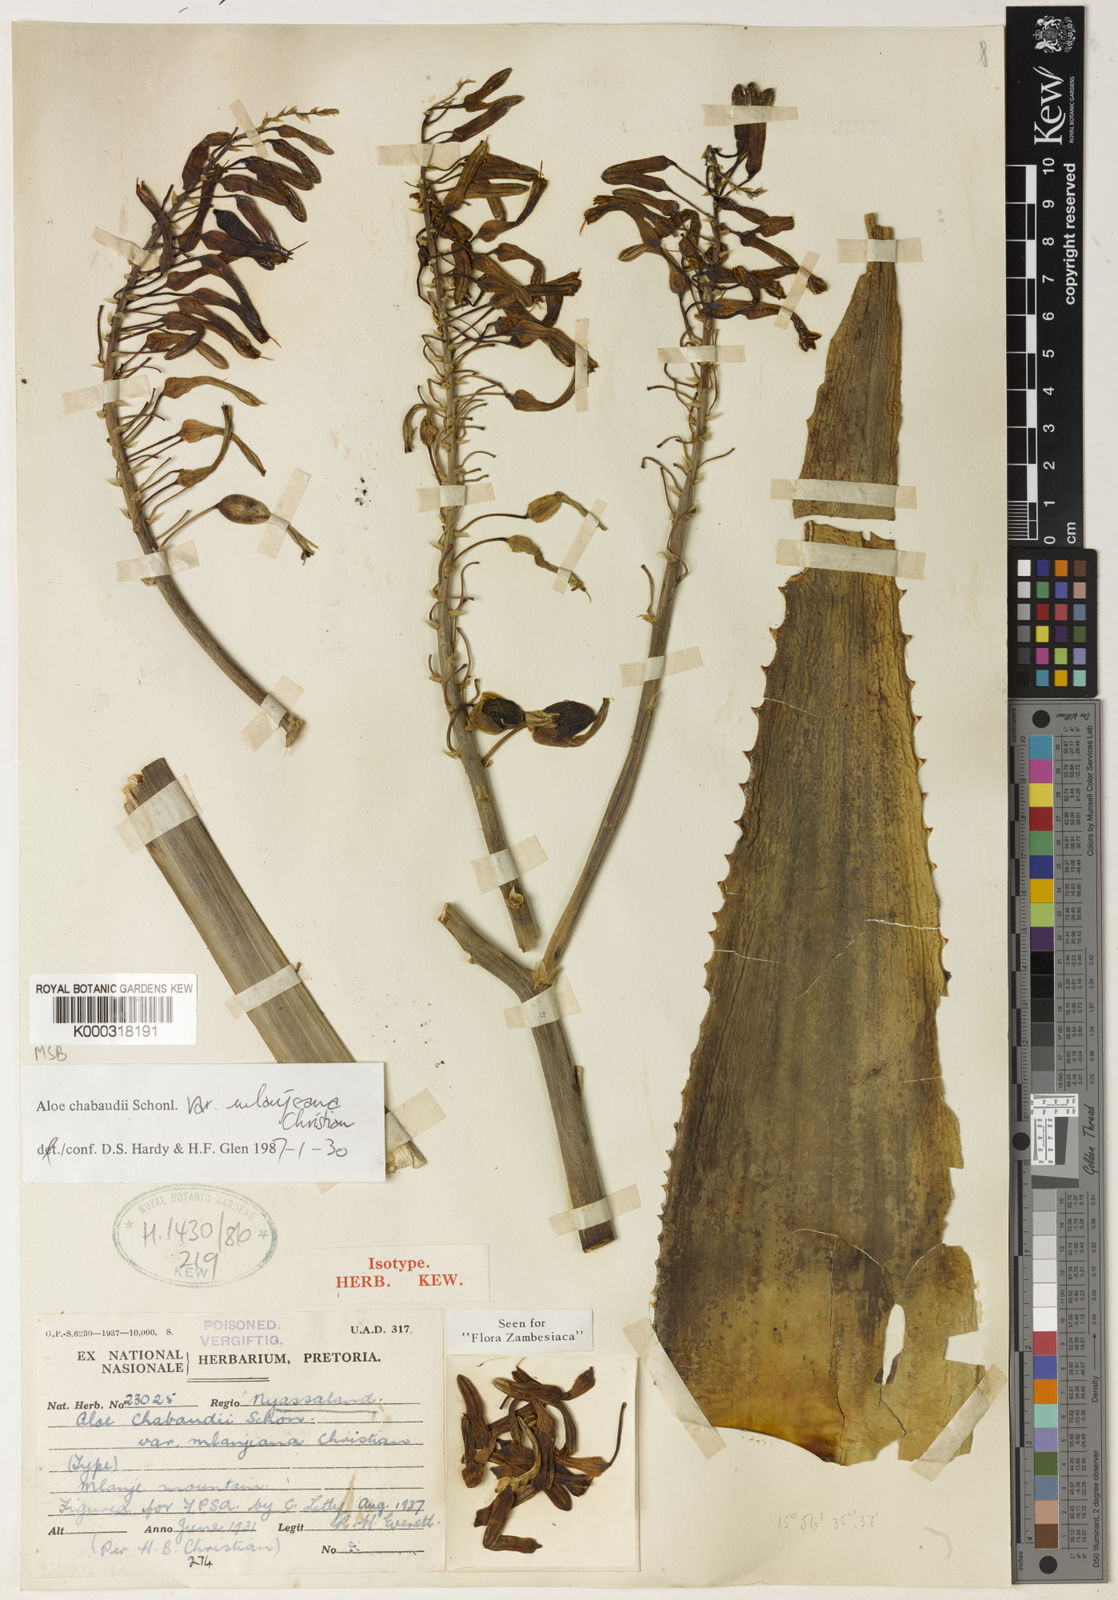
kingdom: Plantae
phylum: Tracheophyta
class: Liliopsida
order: Asparagales
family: Asphodelaceae
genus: Aloe
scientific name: Aloe chabaudii
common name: Chabaud's aloe
